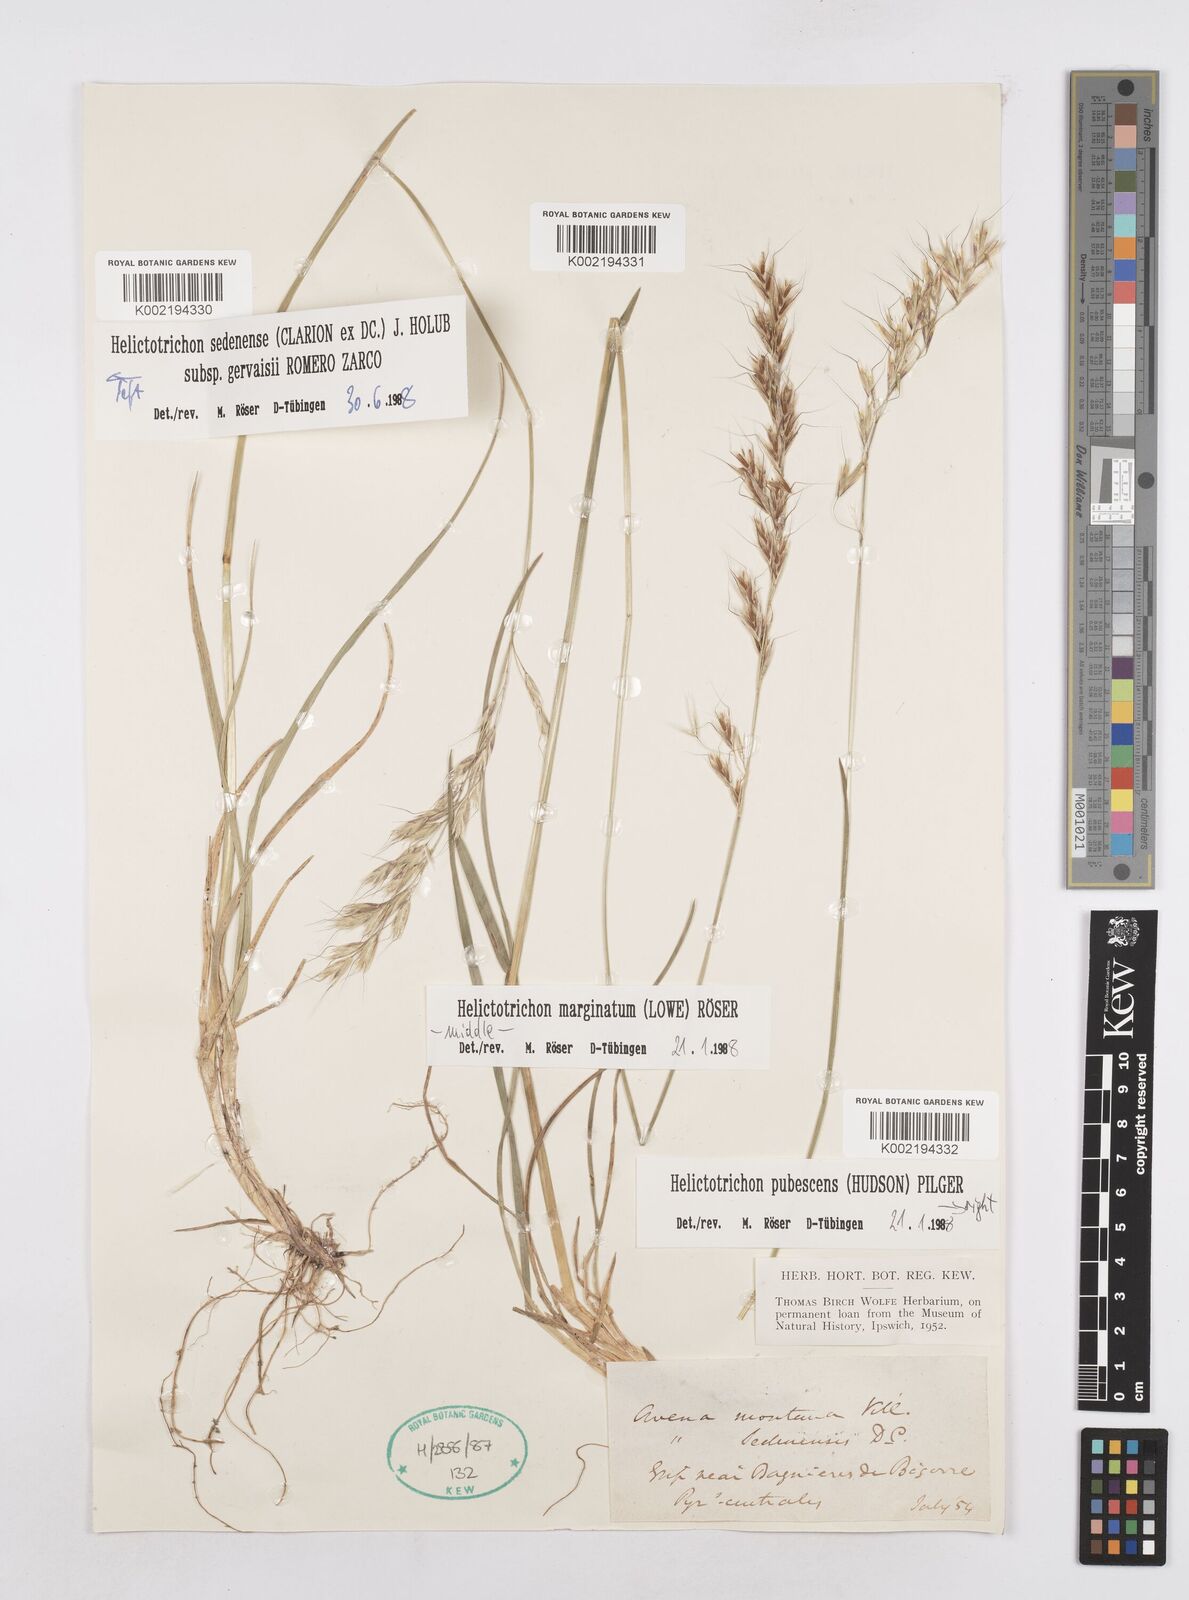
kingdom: Plantae
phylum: Tracheophyta
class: Liliopsida
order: Poales
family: Poaceae
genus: Helictotrichon
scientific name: Helictotrichon sedenense
